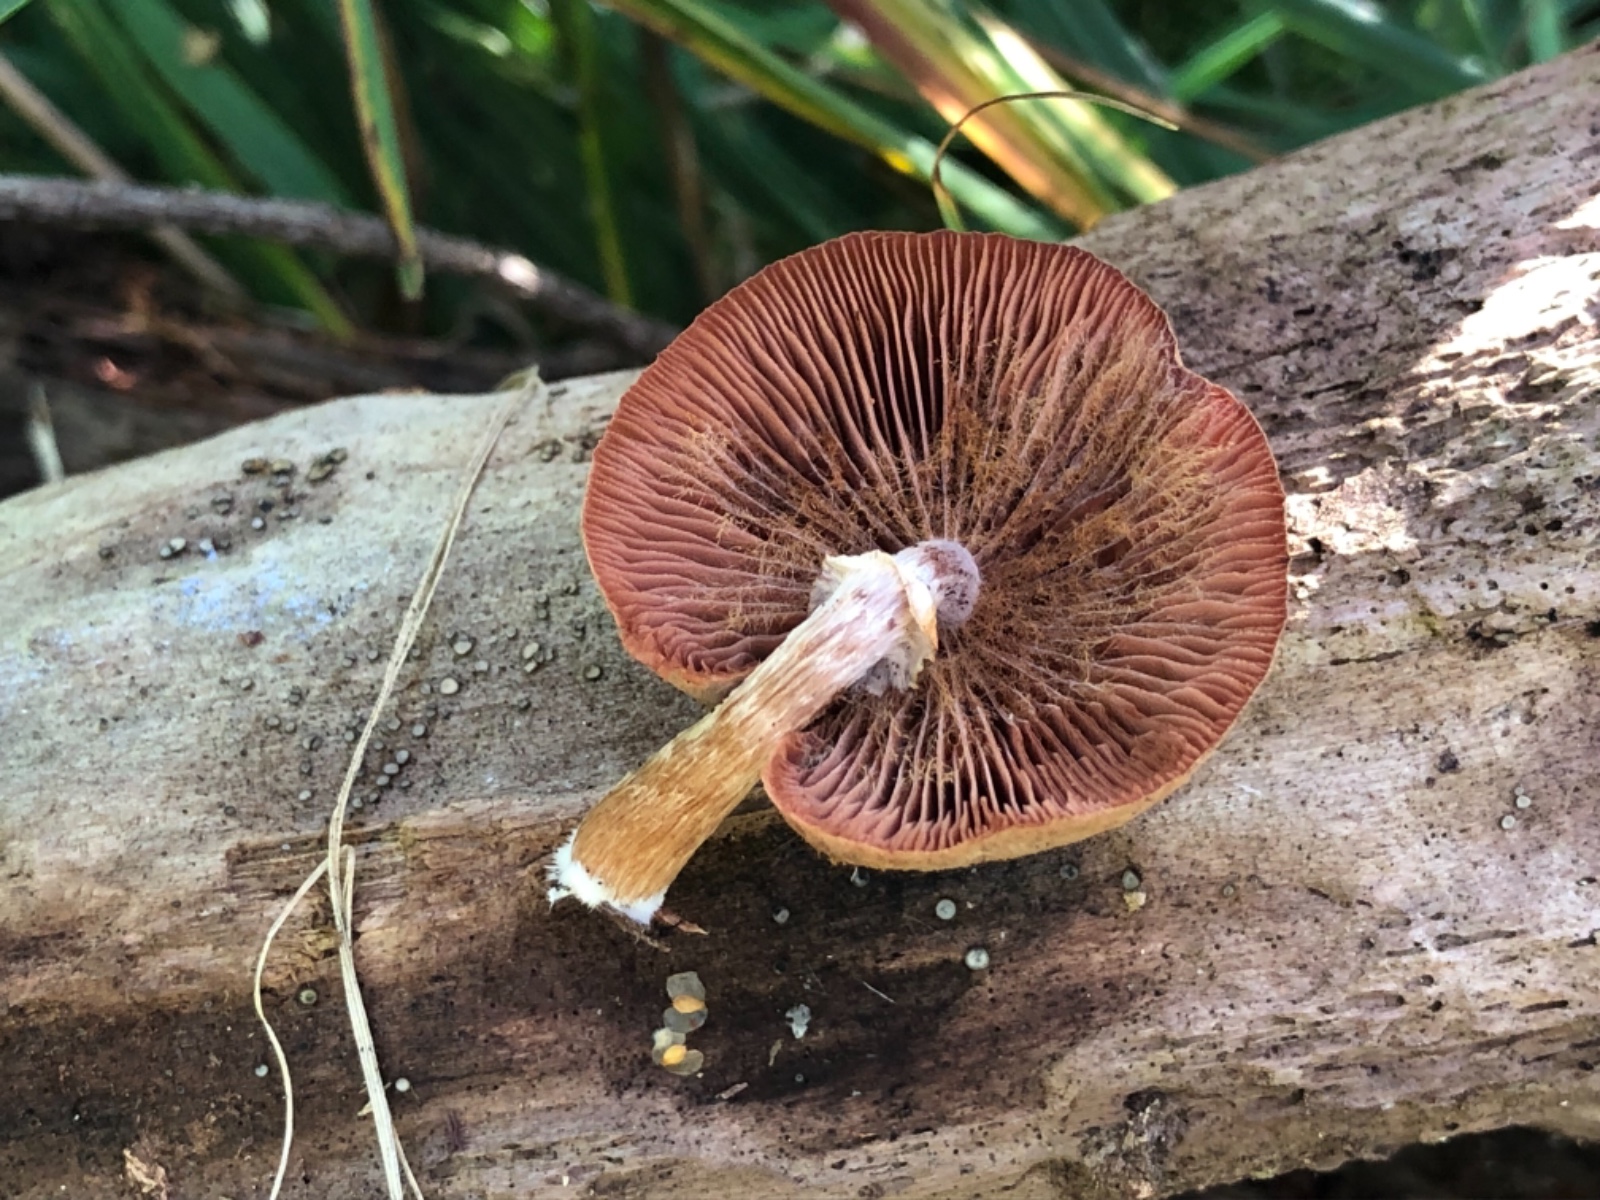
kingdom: Fungi
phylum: Basidiomycota
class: Agaricomycetes
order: Agaricales
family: Tubariaceae
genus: Tubaria
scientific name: Tubaria confragosa
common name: ring-fnughat
